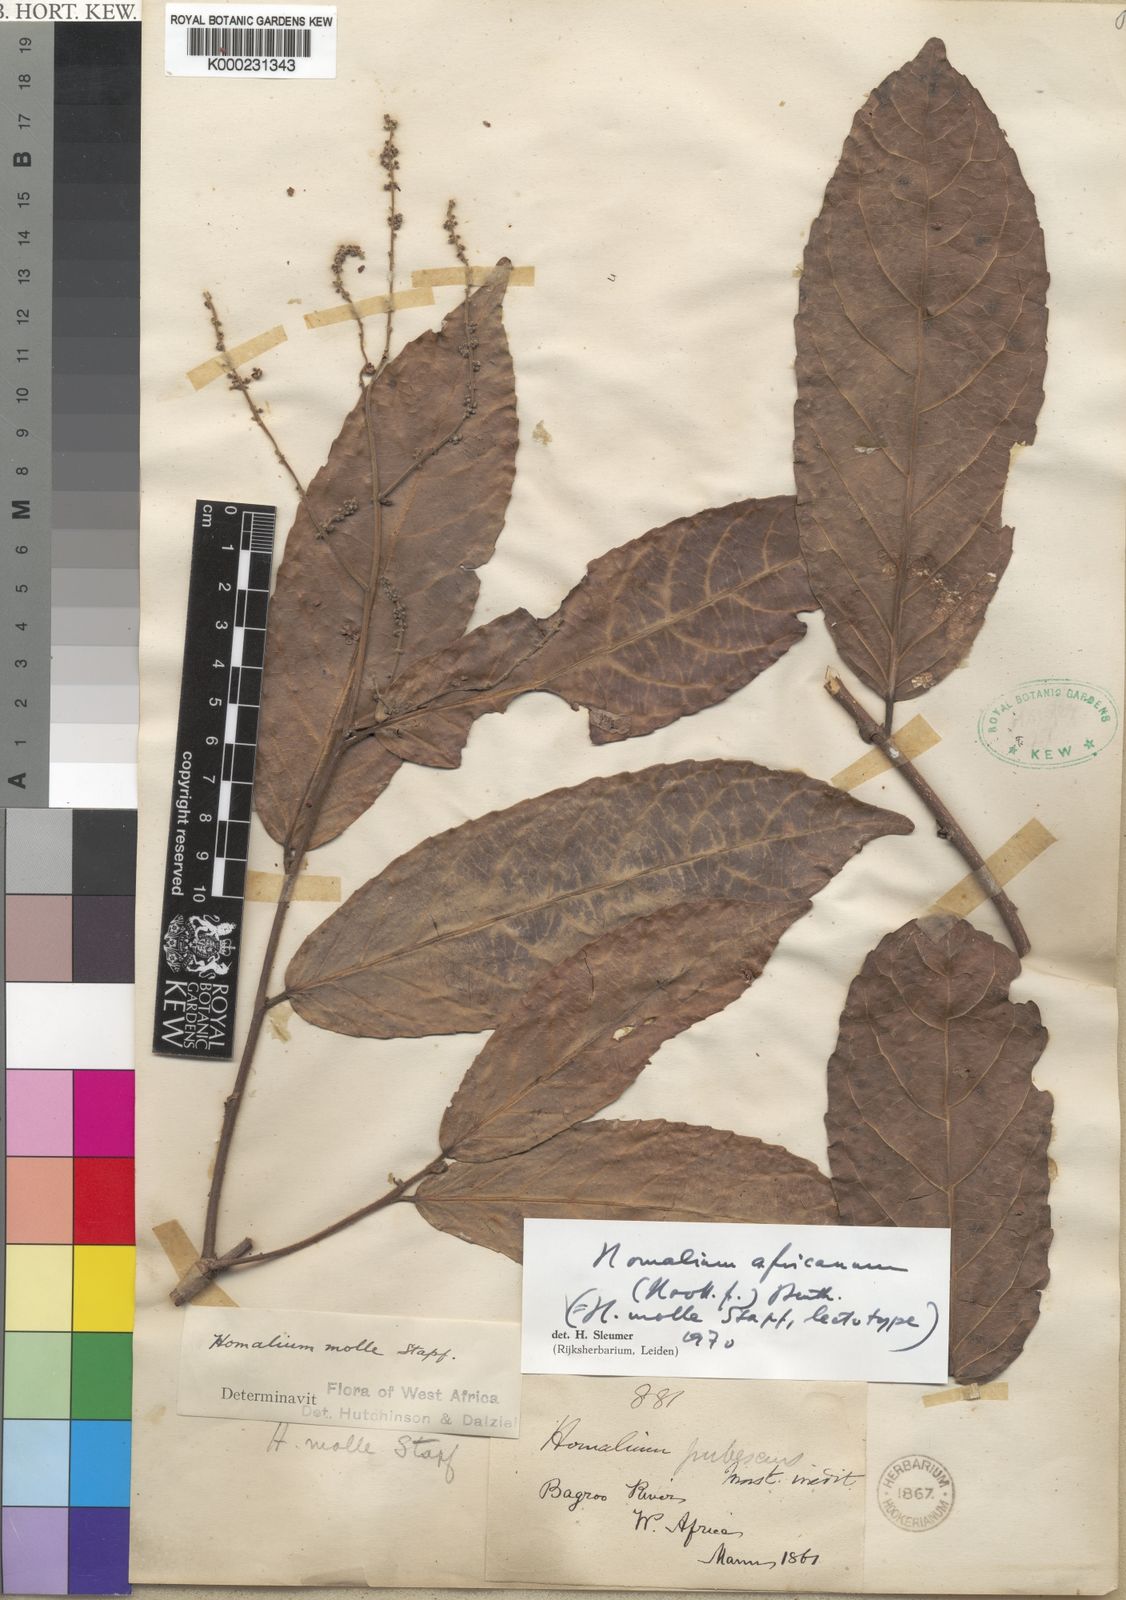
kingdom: Plantae
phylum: Tracheophyta
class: Magnoliopsida
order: Malpighiales
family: Salicaceae
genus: Homalium
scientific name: Homalium africanum
